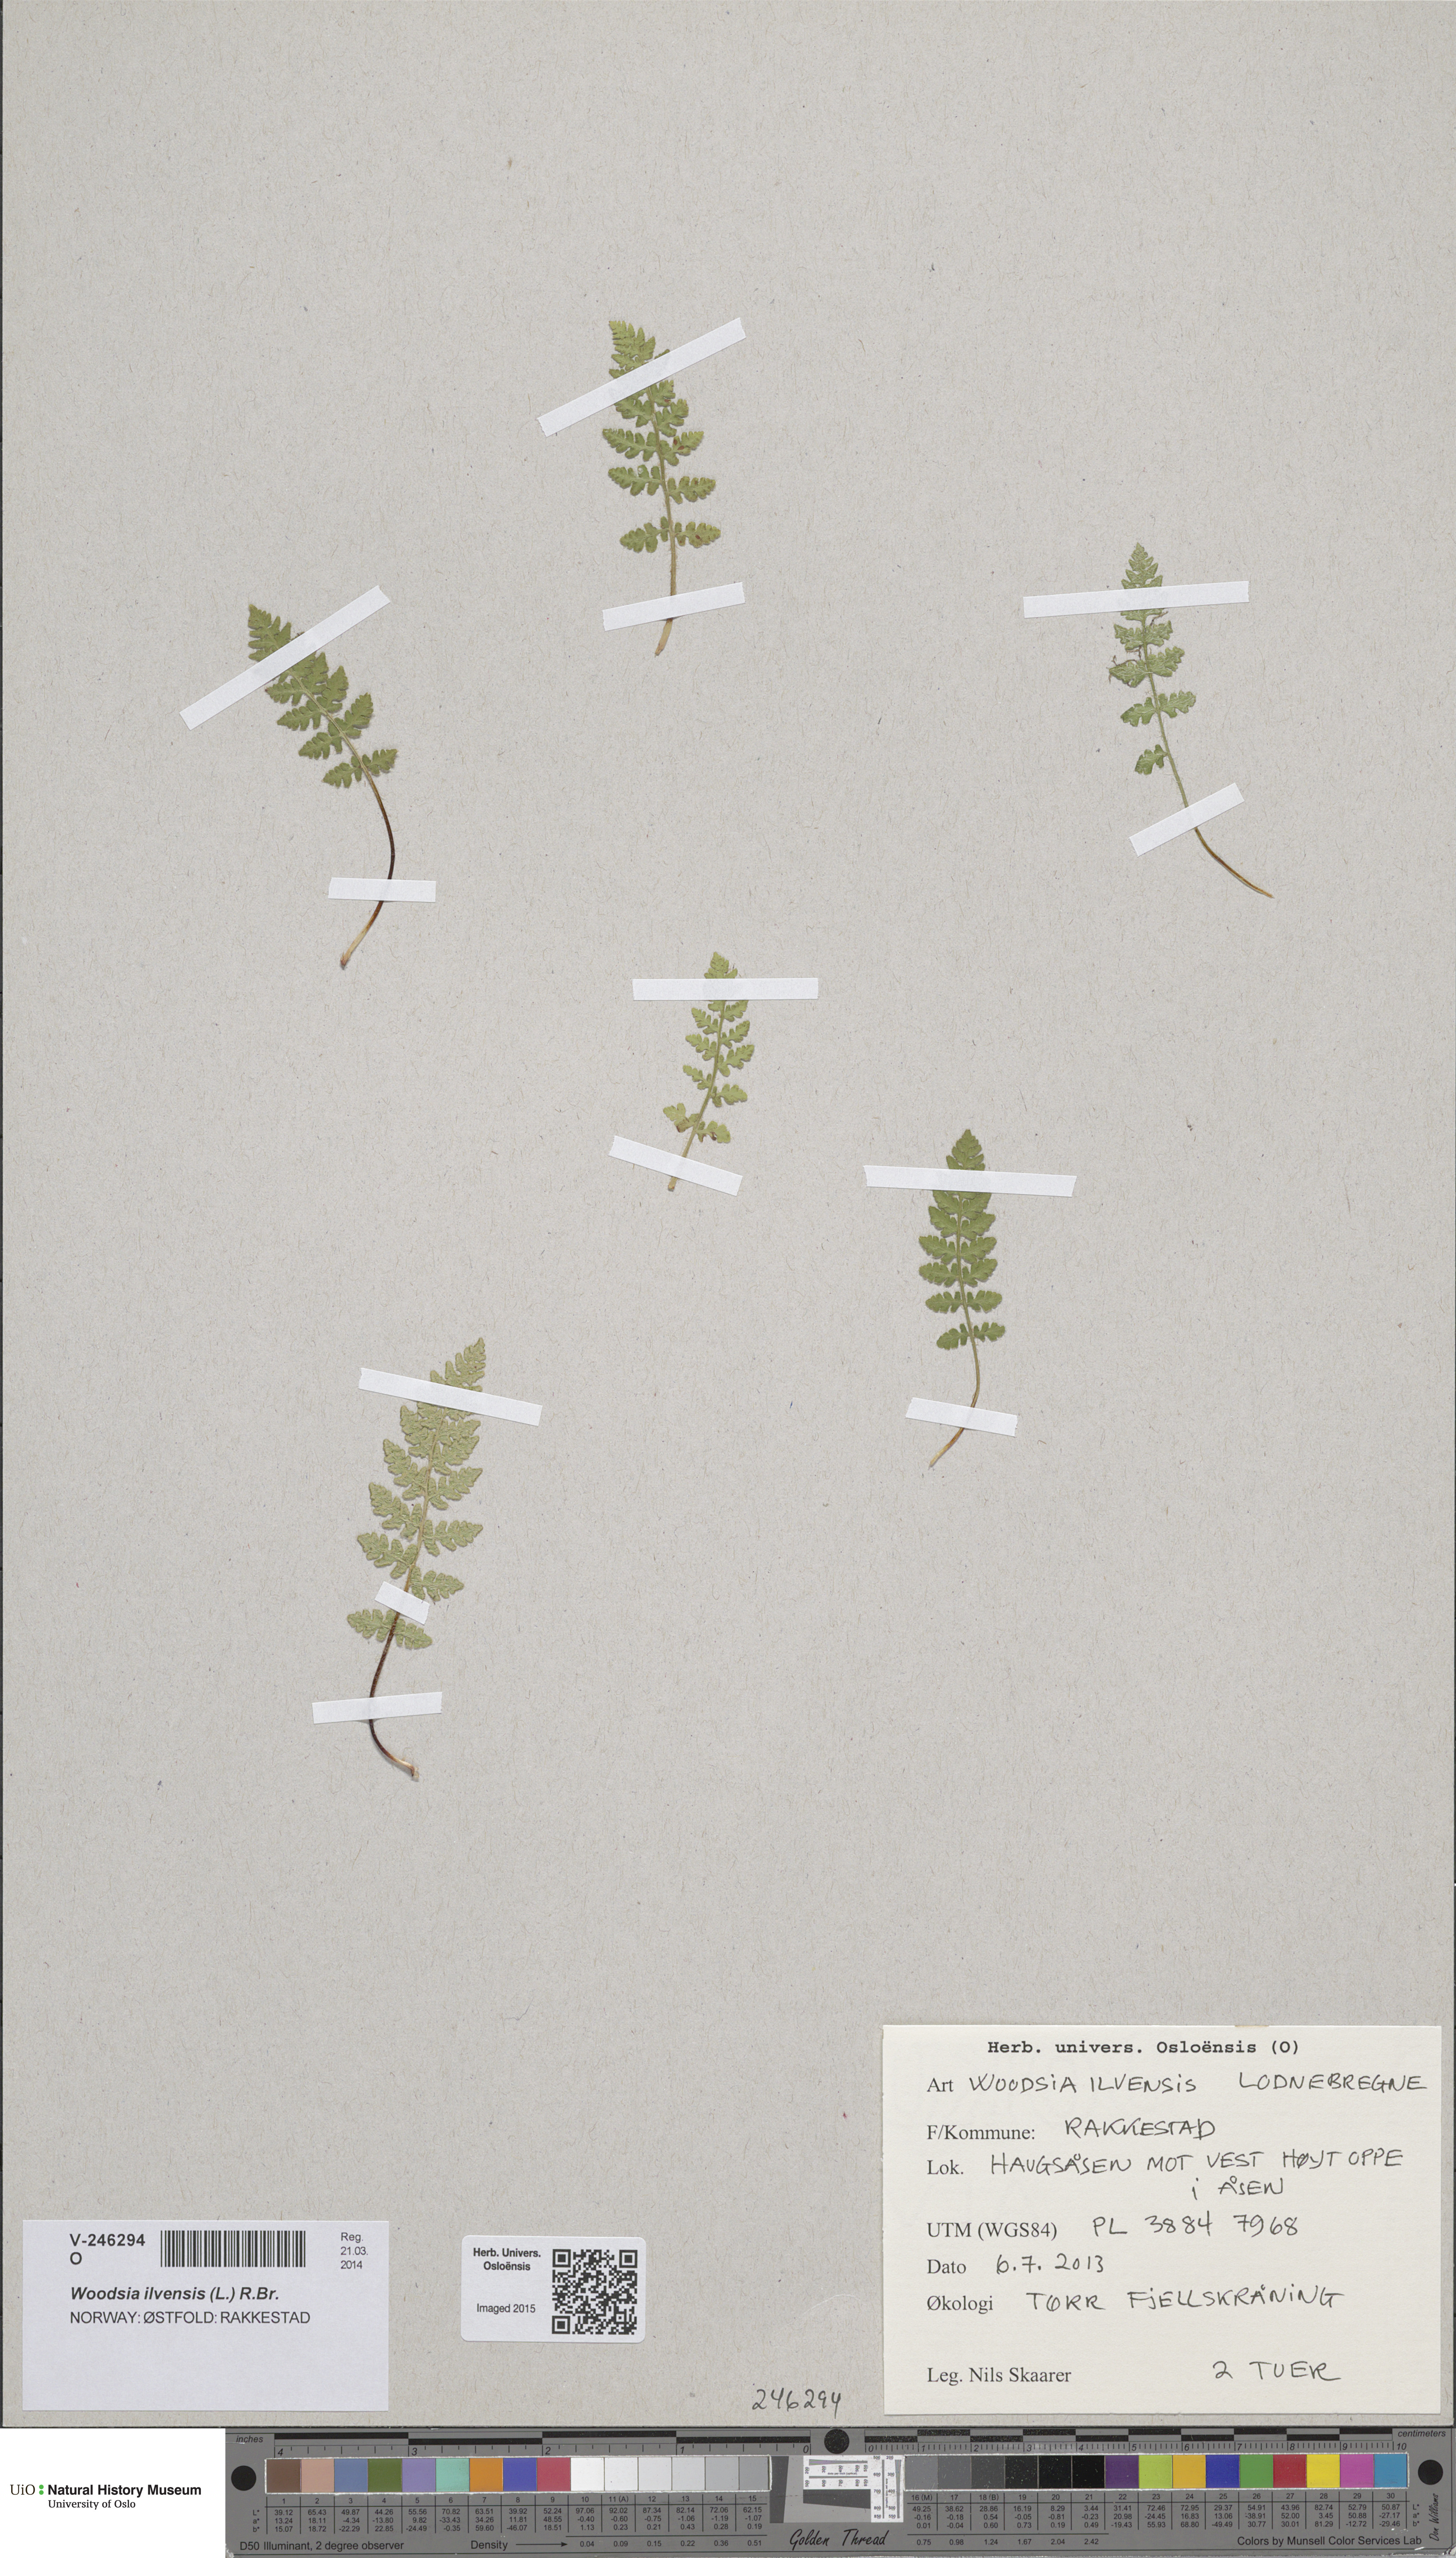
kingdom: Plantae
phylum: Tracheophyta
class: Polypodiopsida
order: Polypodiales
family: Woodsiaceae
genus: Woodsia
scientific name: Woodsia ilvensis
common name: Fragrant woodsia
